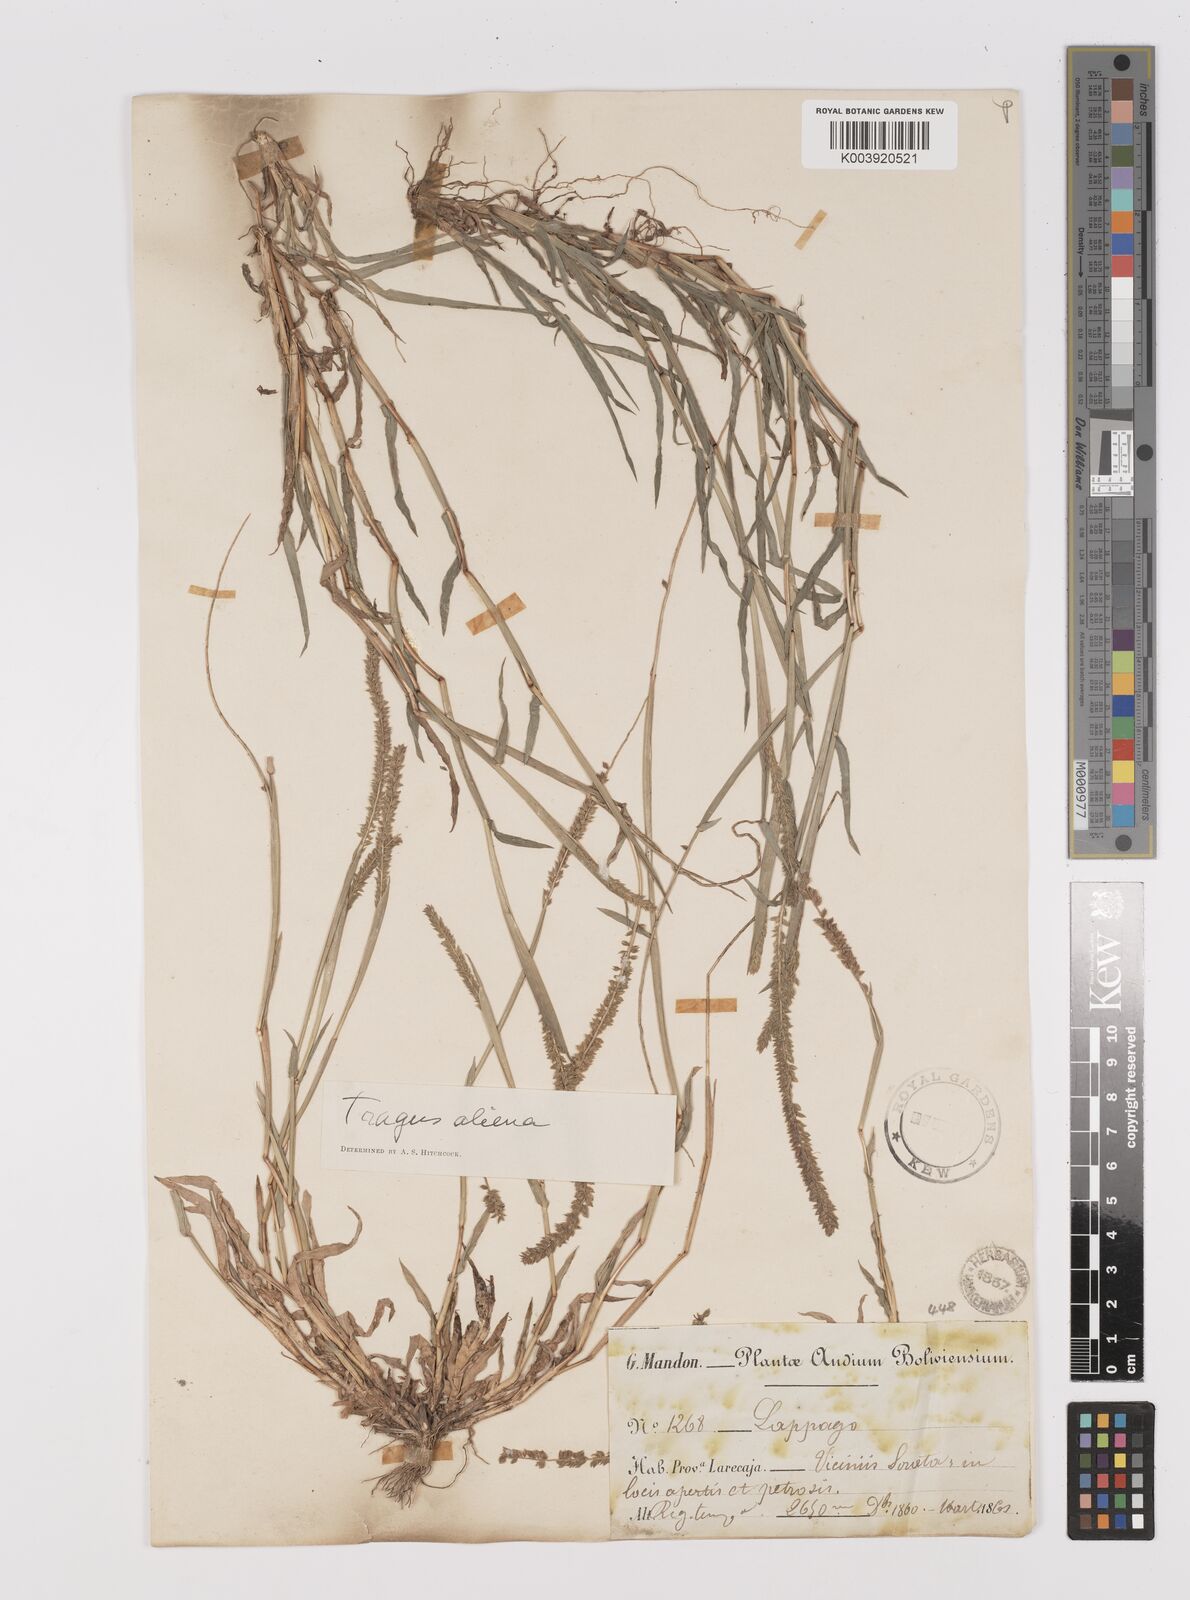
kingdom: Plantae
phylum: Tracheophyta
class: Liliopsida
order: Poales
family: Poaceae
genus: Tragus
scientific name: Tragus berteronianus
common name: African bur-grass
